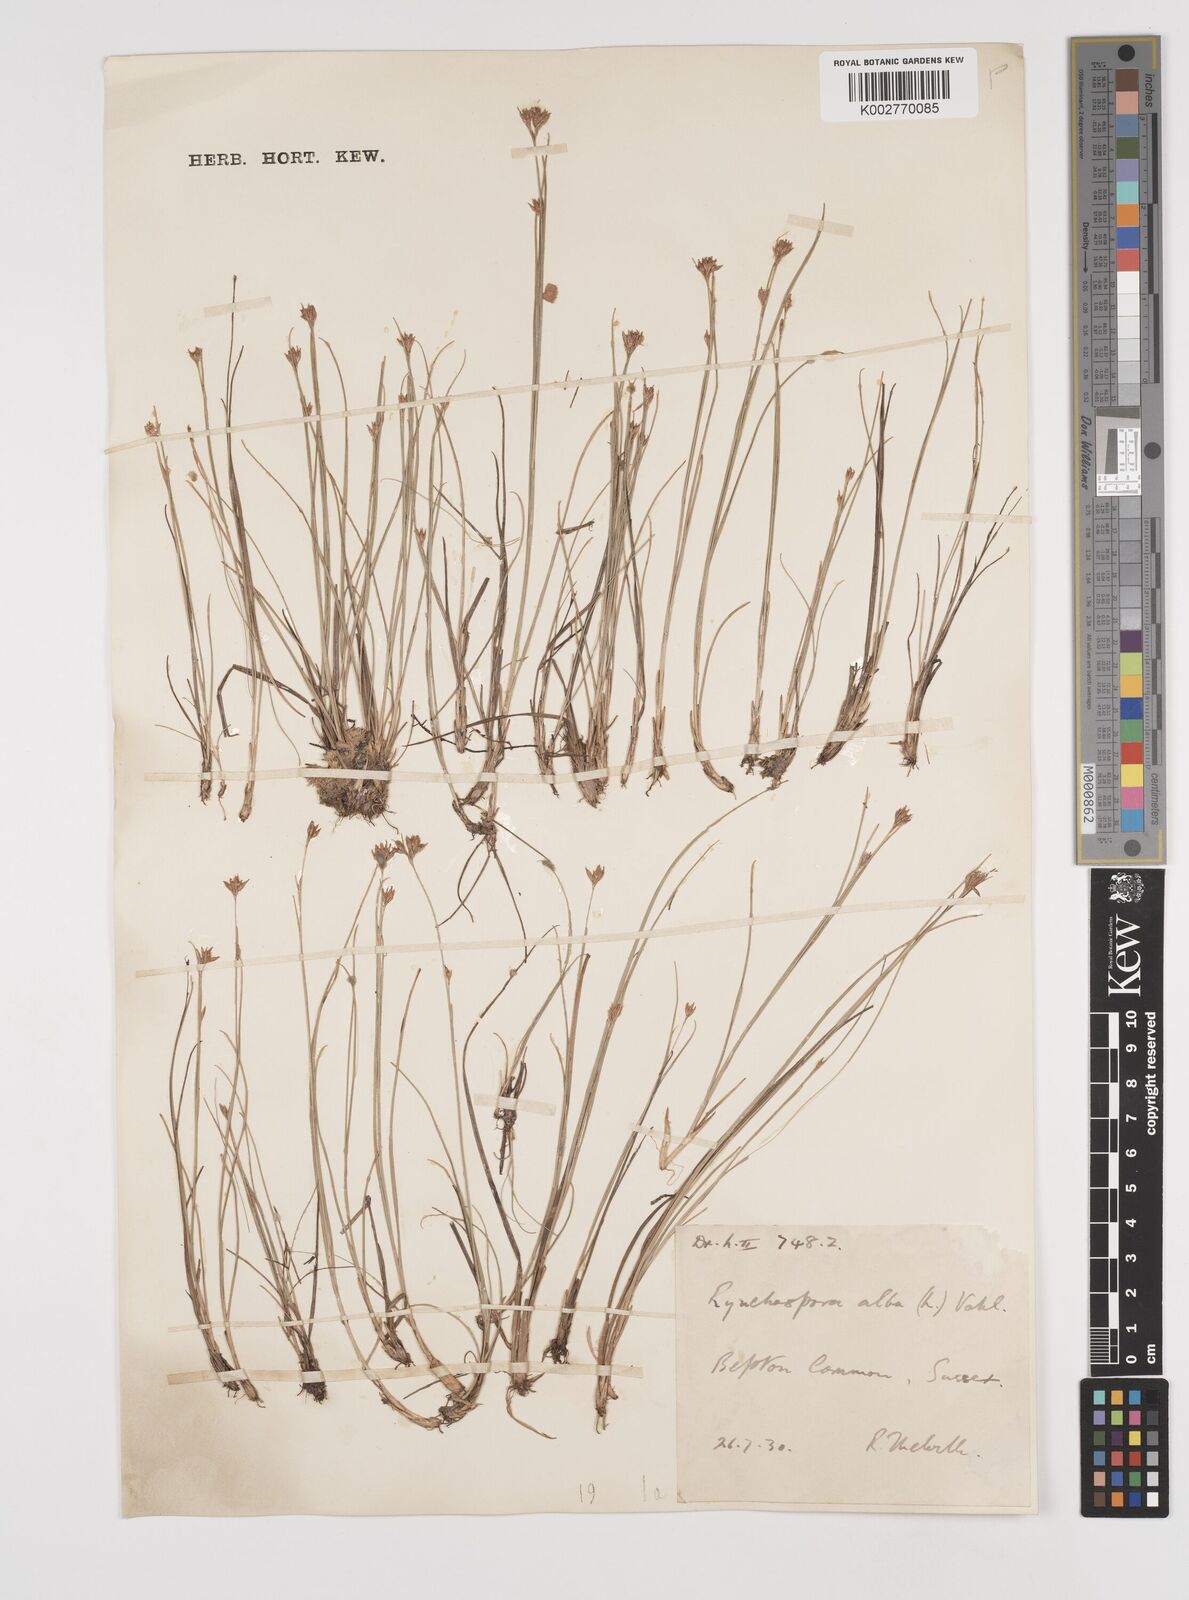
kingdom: Plantae
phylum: Tracheophyta
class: Liliopsida
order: Poales
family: Cyperaceae
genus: Rhynchospora
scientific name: Rhynchospora alba
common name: White beak-sedge
